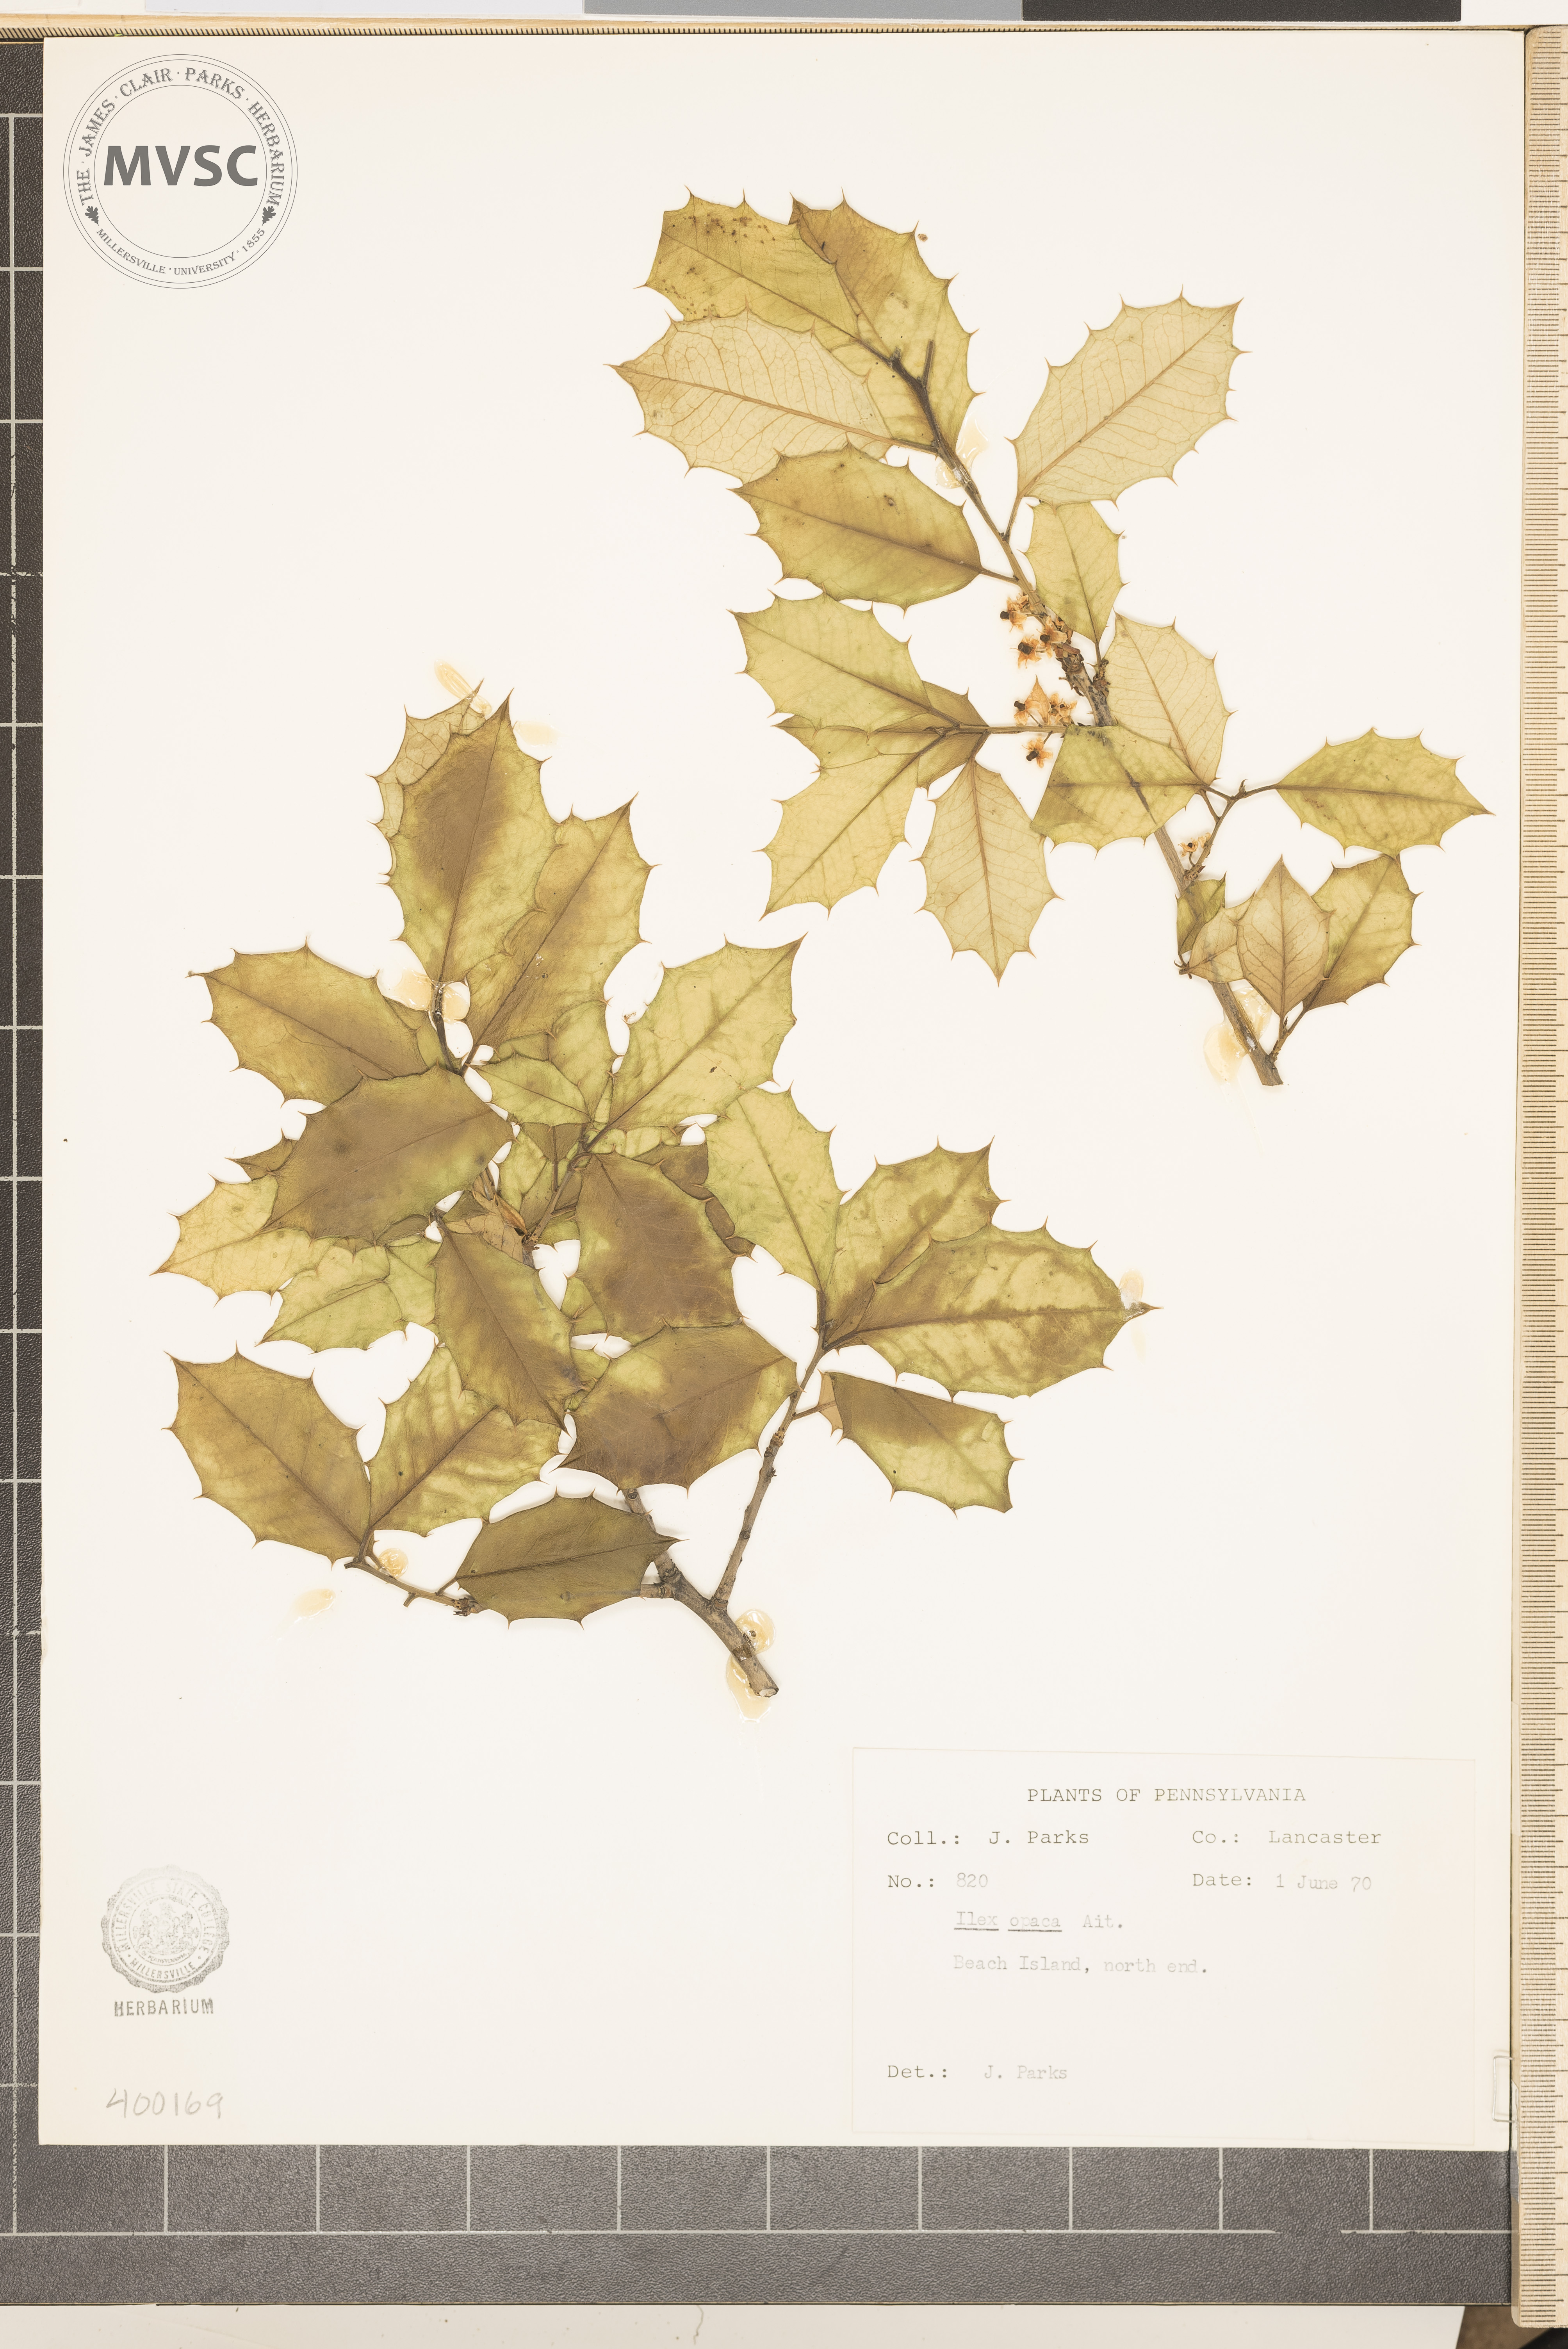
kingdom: Plantae
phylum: Tracheophyta
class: Magnoliopsida
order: Aquifoliales
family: Aquifoliaceae
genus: Ilex
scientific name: Ilex opaca
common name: American holly
